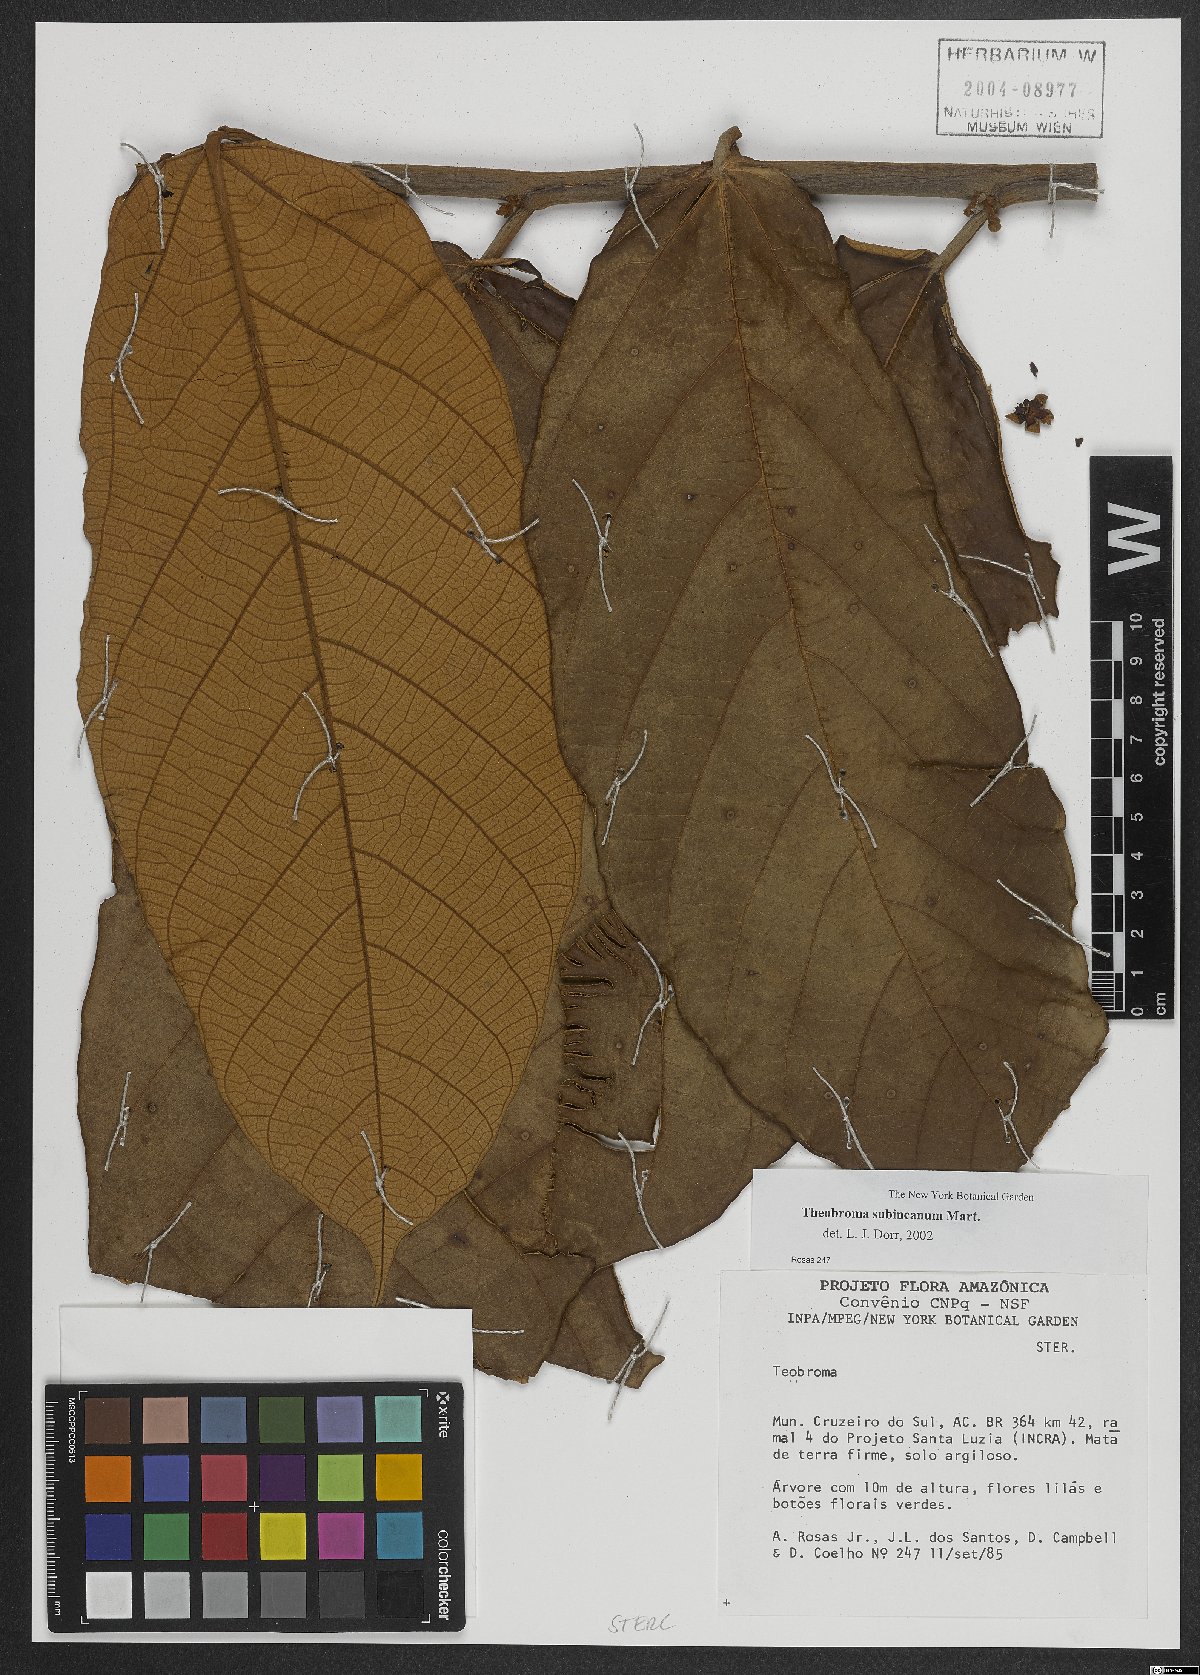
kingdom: Plantae
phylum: Tracheophyta
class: Magnoliopsida
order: Malvales
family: Malvaceae
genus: Theobroma
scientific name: Theobroma subincanum
